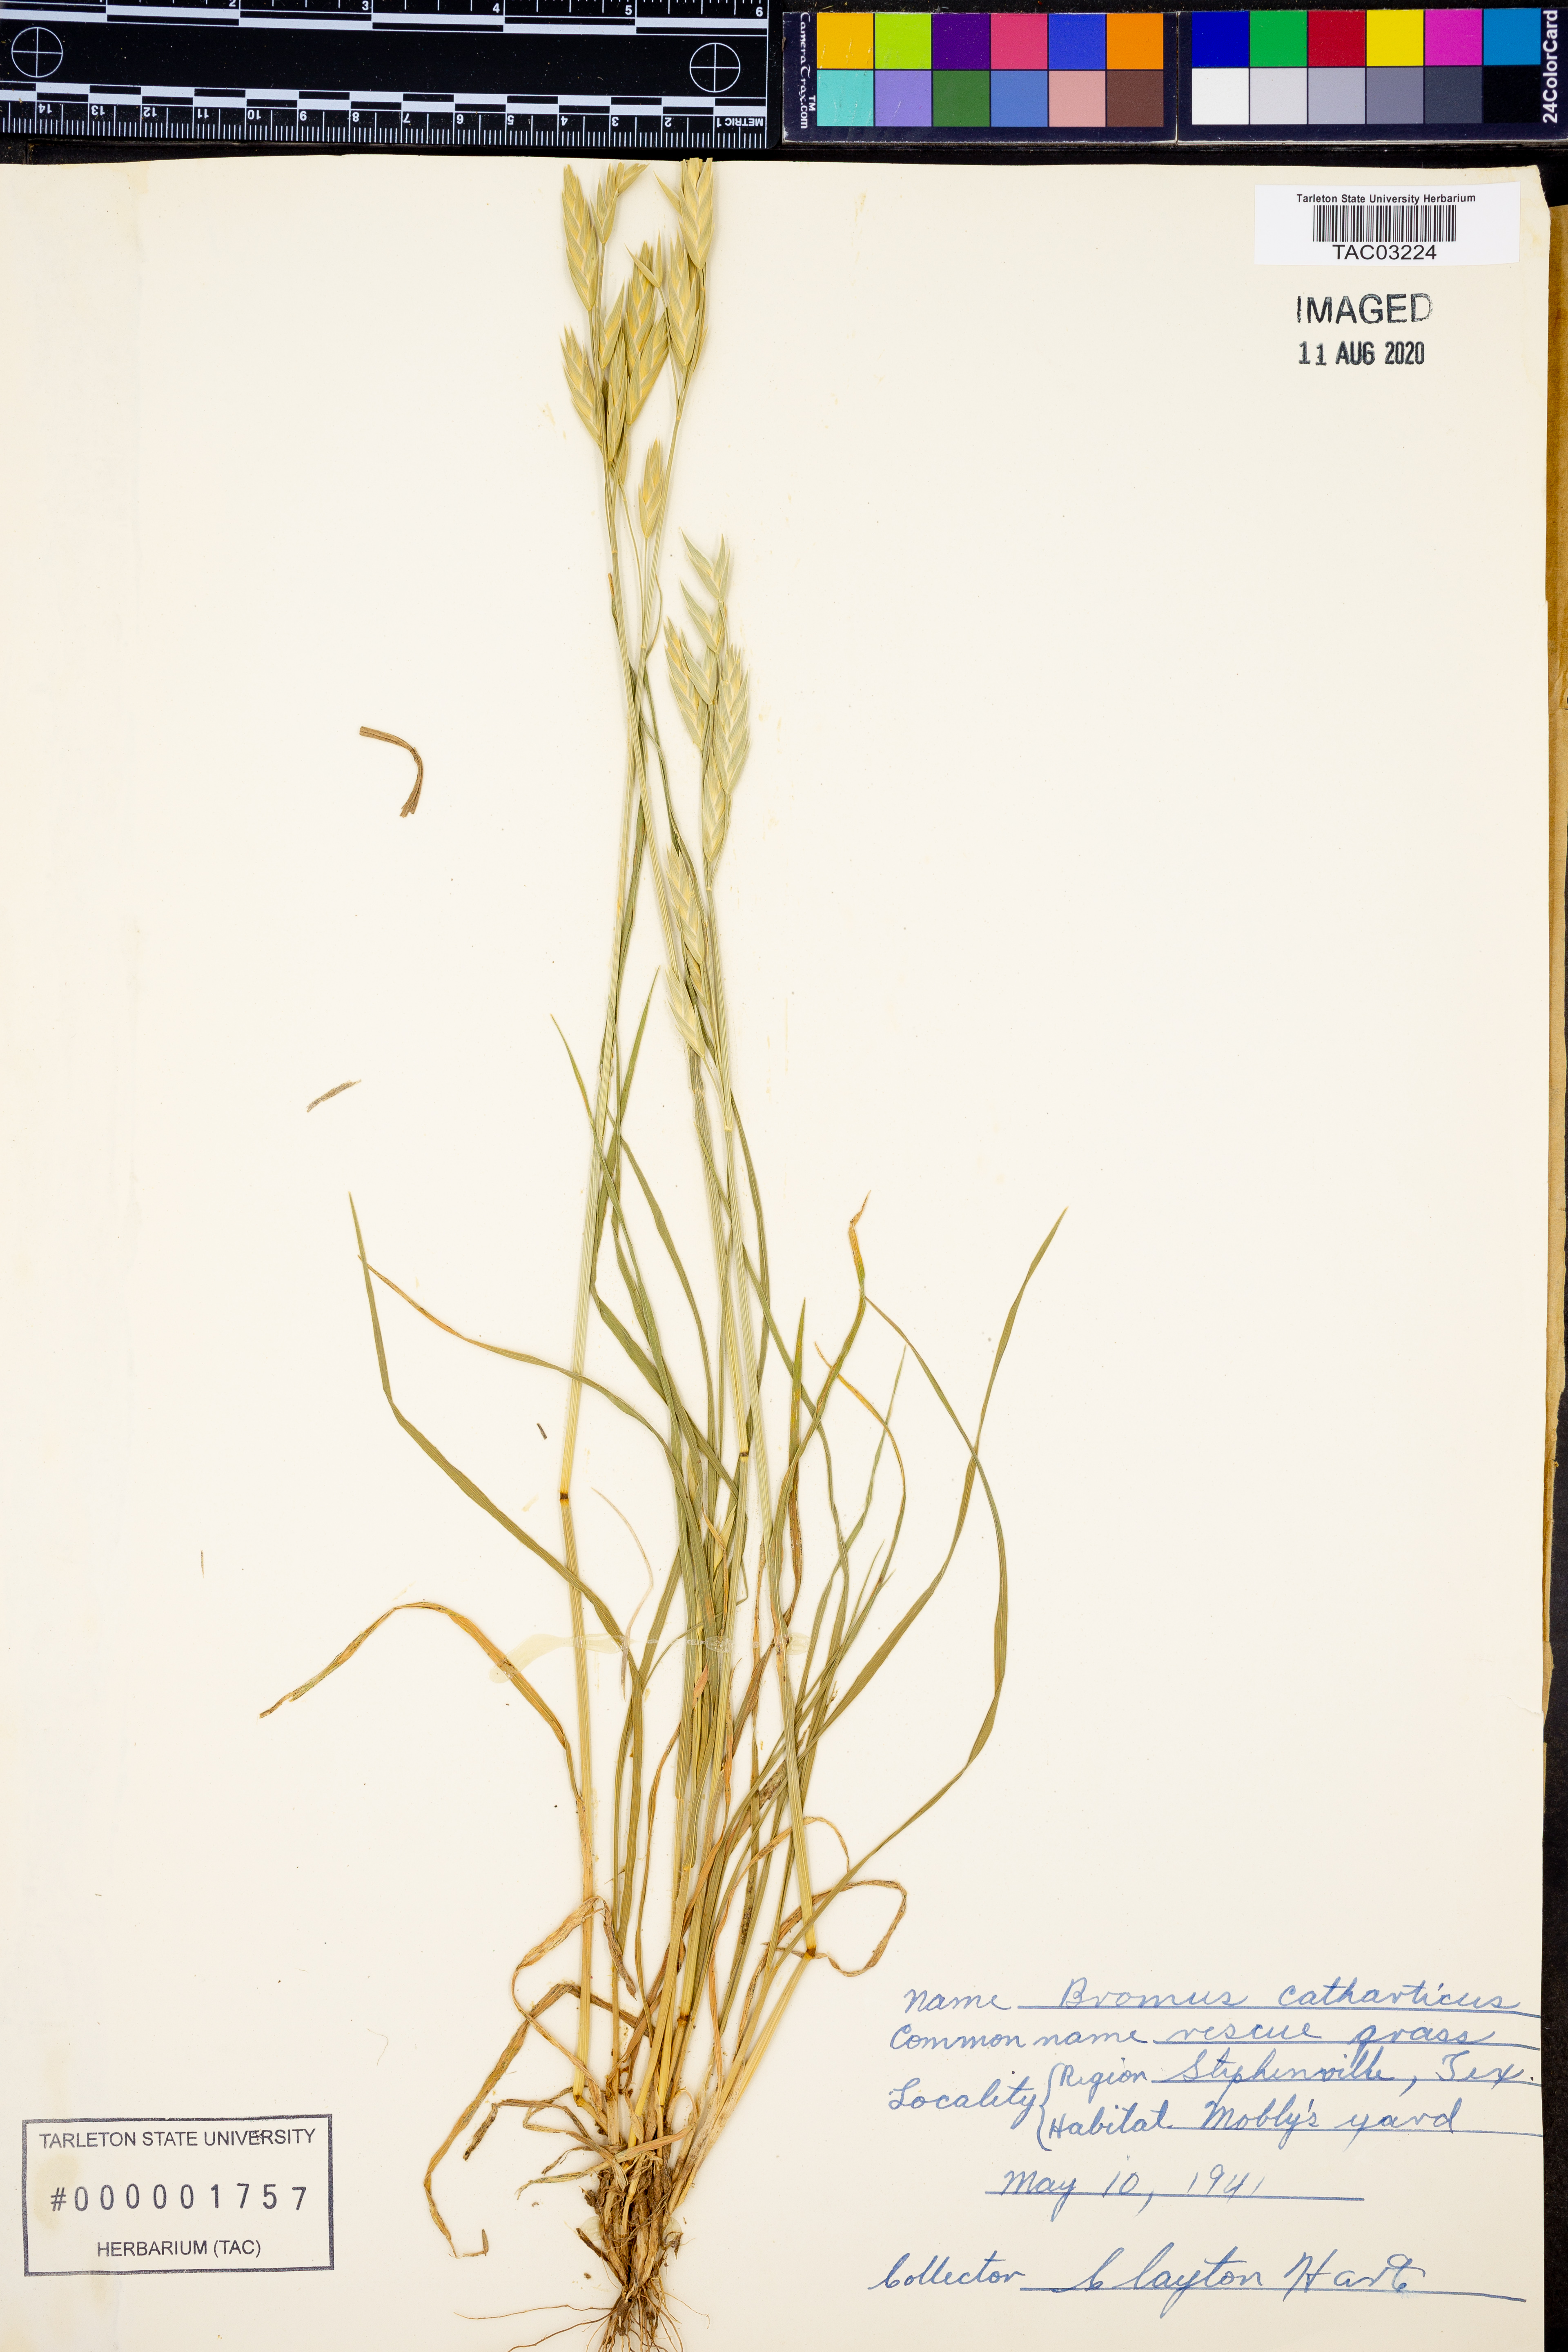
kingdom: Plantae
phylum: Tracheophyta
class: Liliopsida
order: Poales
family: Poaceae
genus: Bromus
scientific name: Bromus catharticus
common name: Rescuegrass
